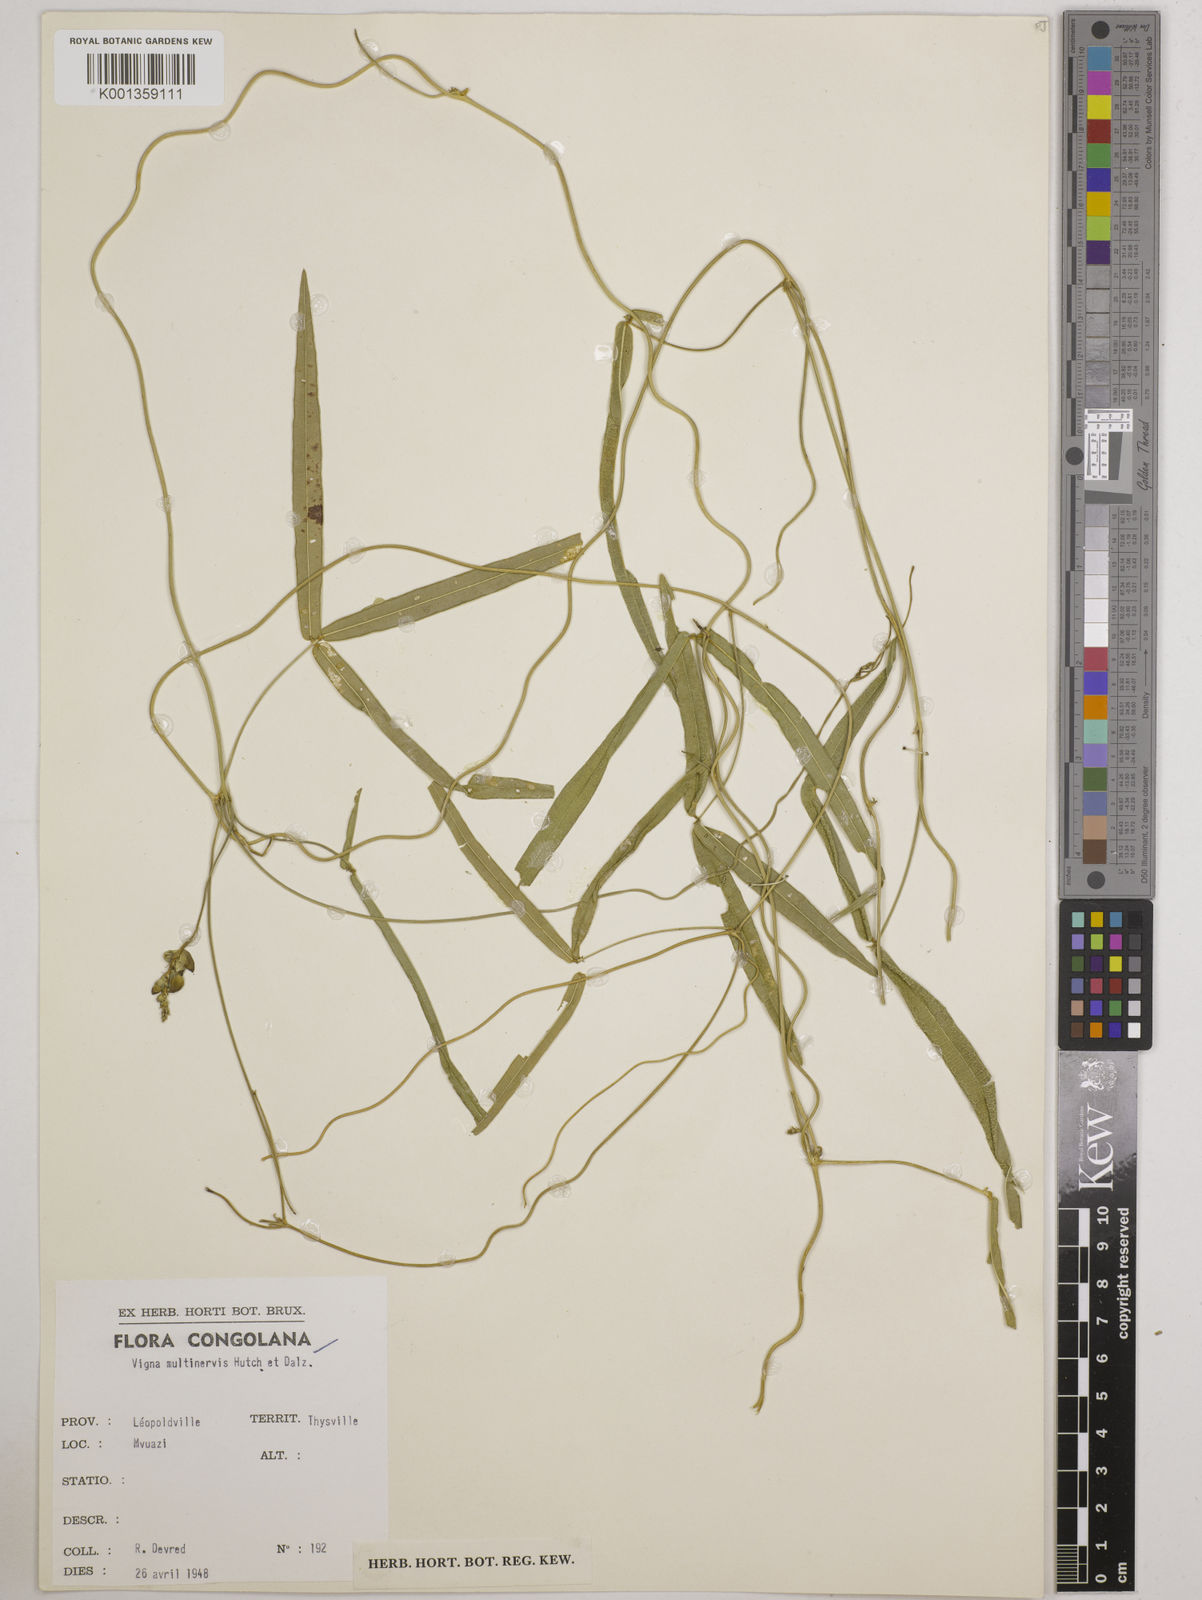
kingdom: Plantae
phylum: Tracheophyta
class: Magnoliopsida
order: Fabales
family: Fabaceae
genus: Vigna
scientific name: Vigna multinervis
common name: Fula-pulaar
